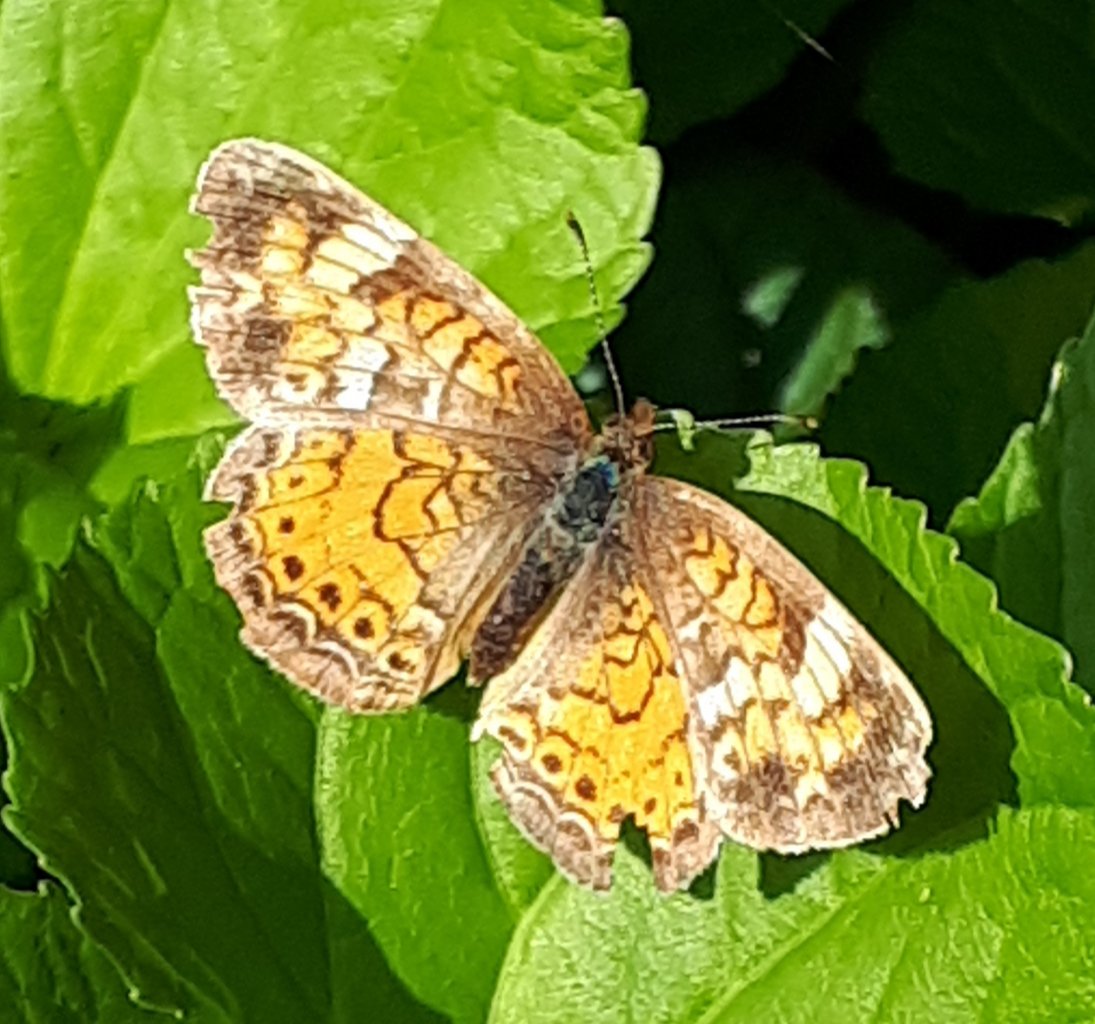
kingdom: Animalia
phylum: Arthropoda
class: Insecta
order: Lepidoptera
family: Nymphalidae
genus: Phyciodes
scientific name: Phyciodes tharos
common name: Northern Crescent
